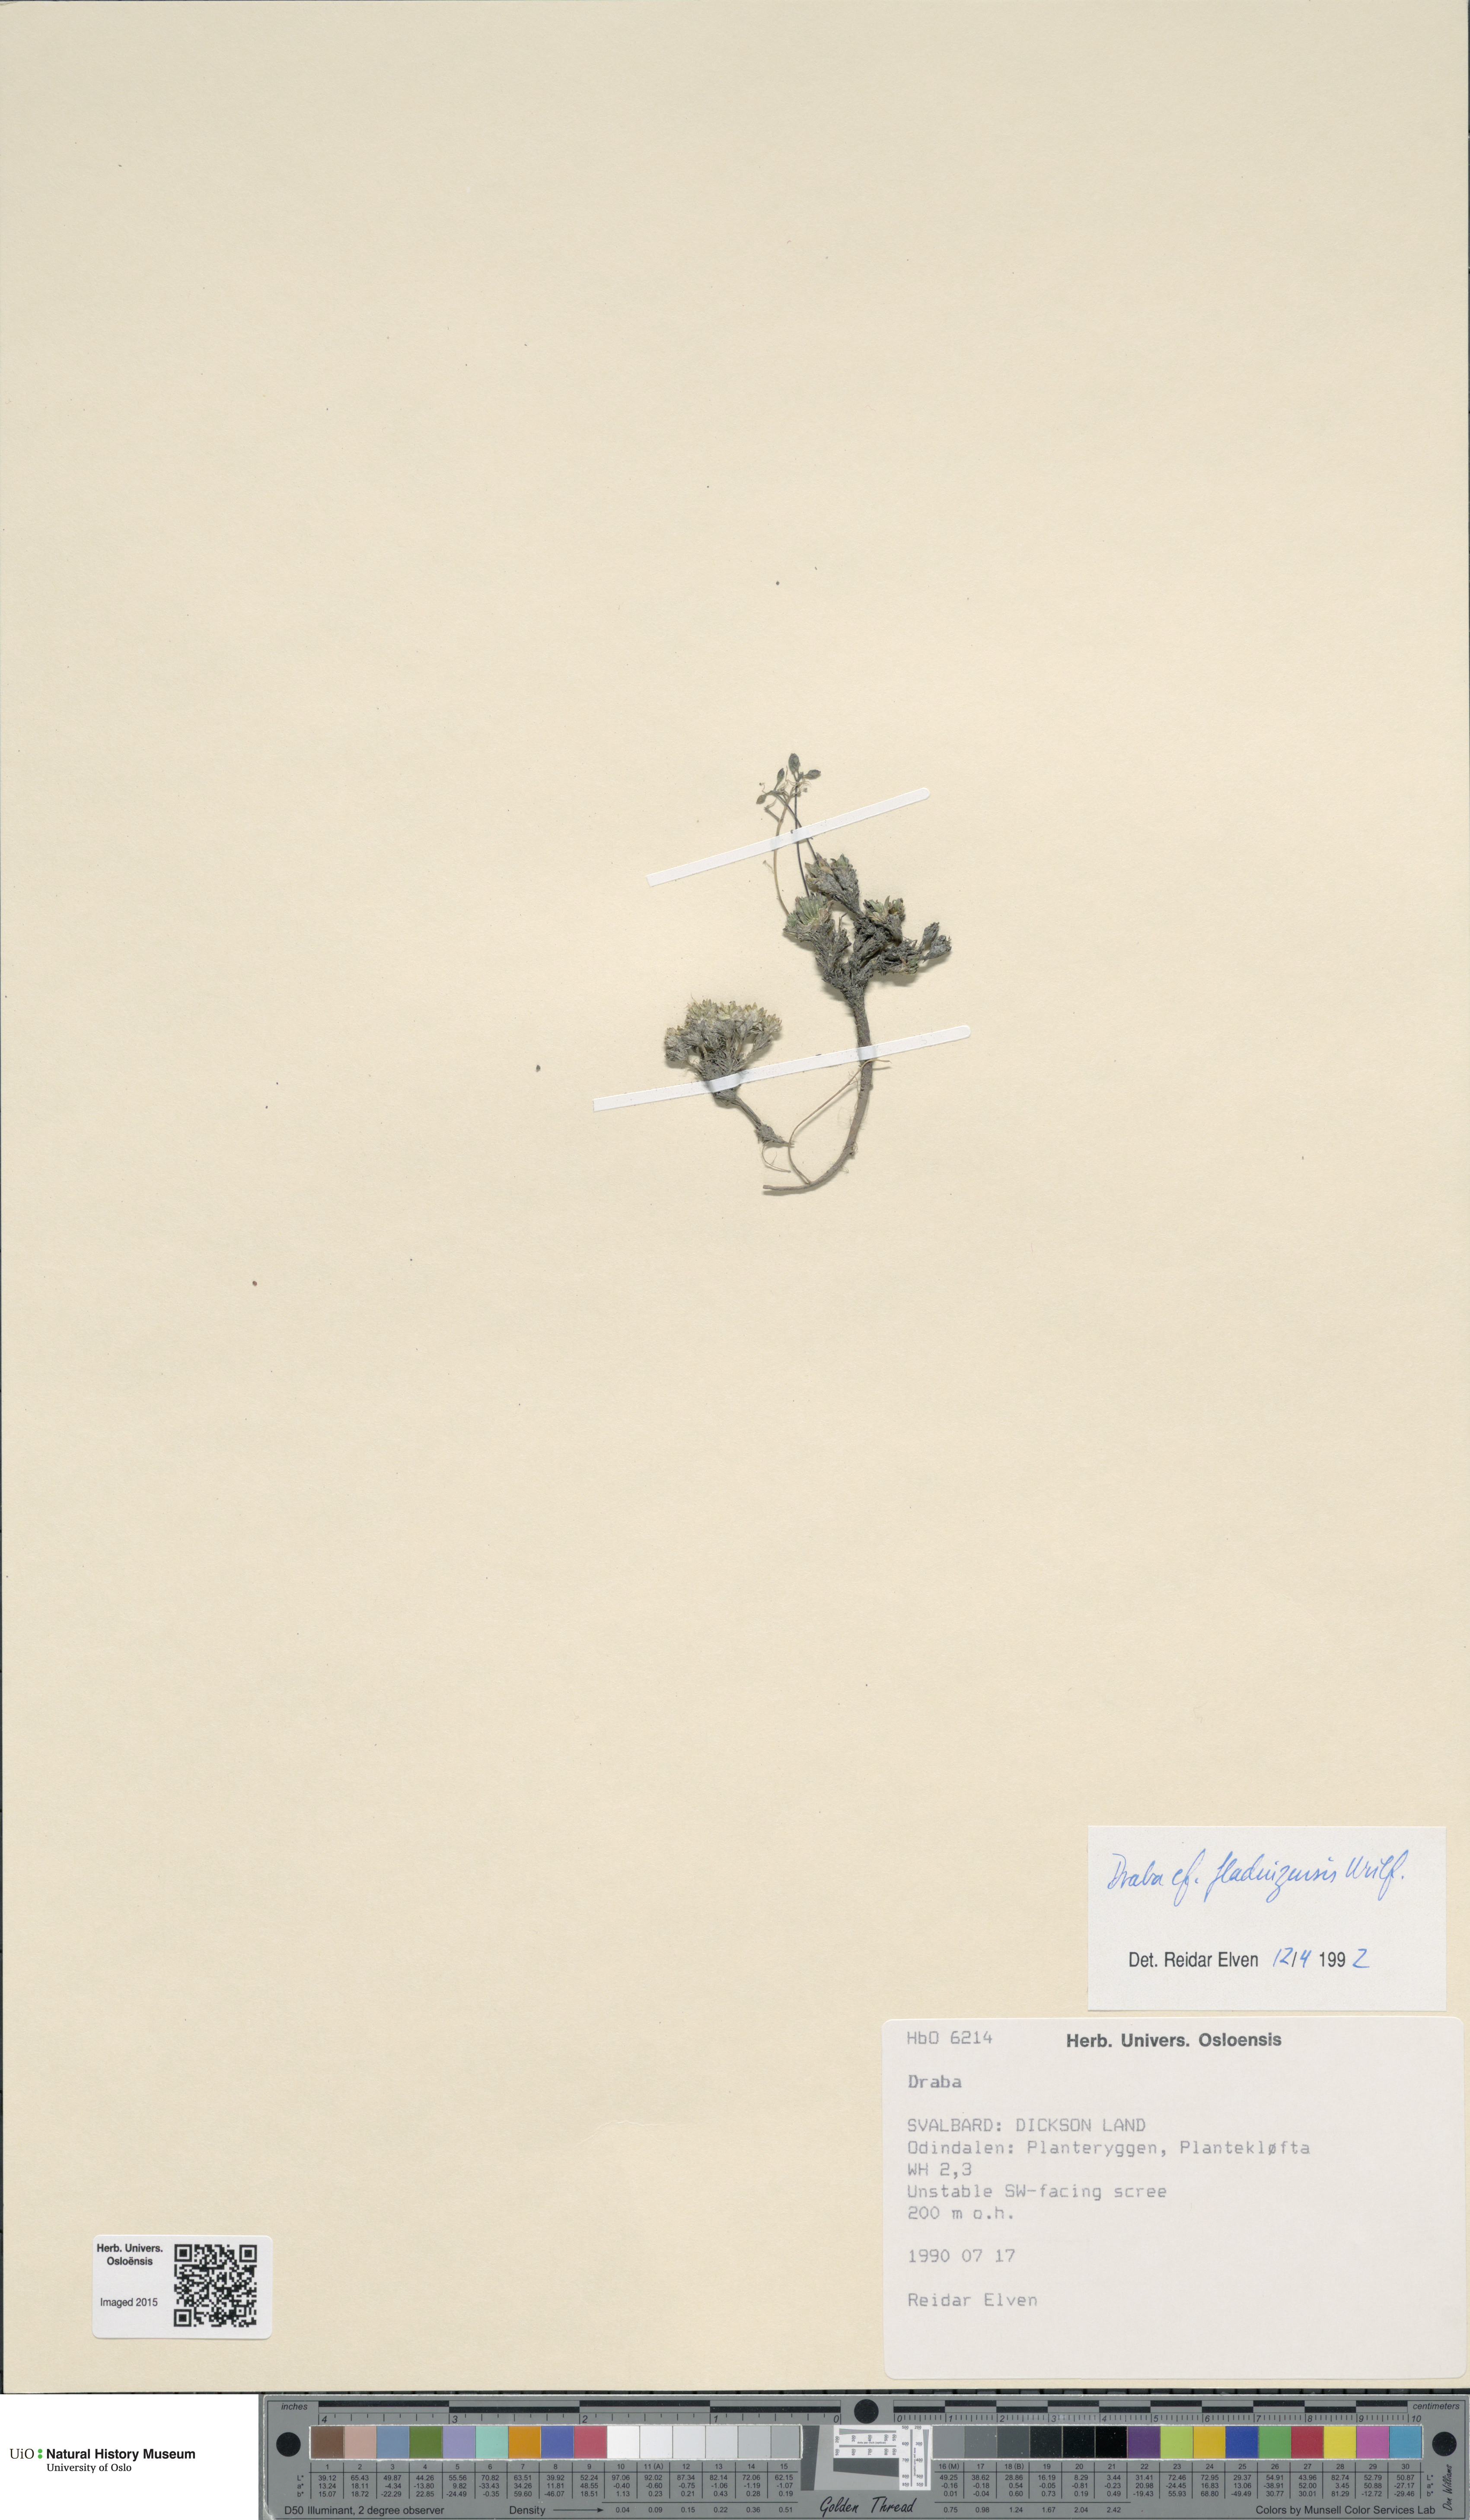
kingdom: Plantae
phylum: Tracheophyta
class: Magnoliopsida
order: Brassicales
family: Brassicaceae
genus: Draba
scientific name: Draba fladnizensis
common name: Austrian draba
